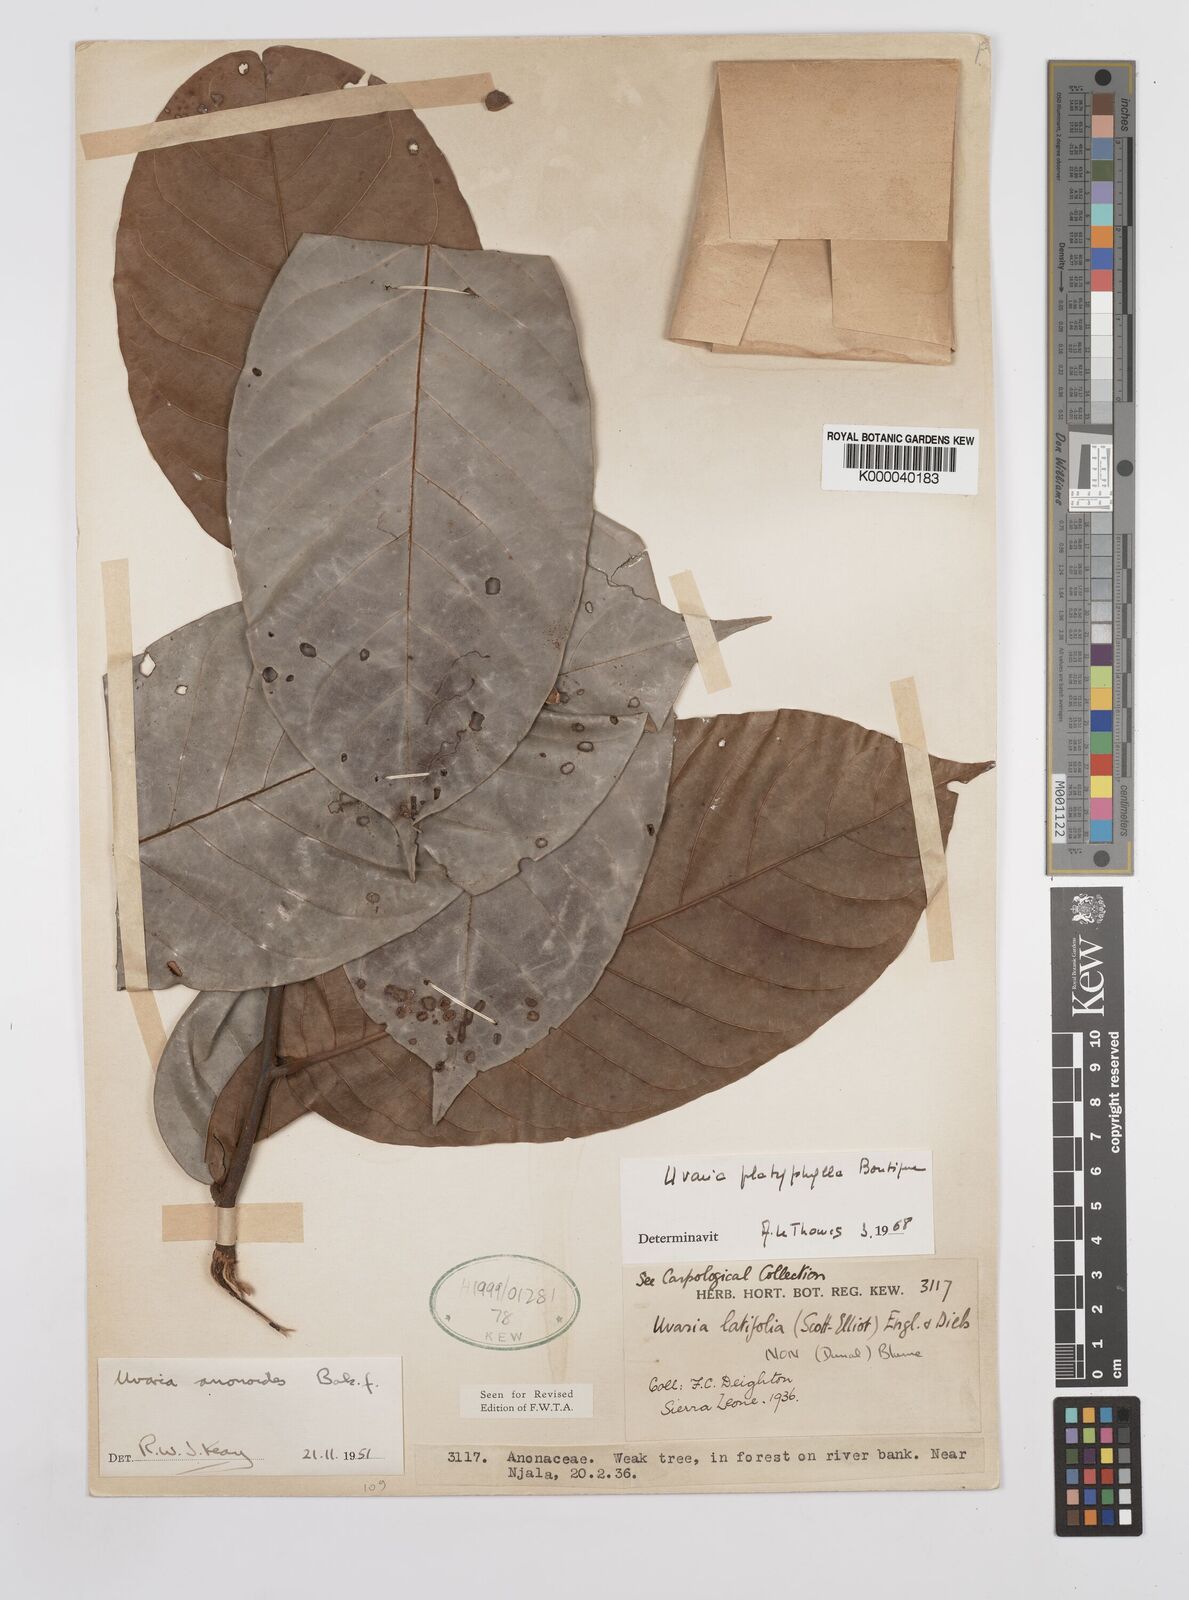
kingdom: Plantae
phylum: Tracheophyta
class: Magnoliopsida
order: Magnoliales
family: Annonaceae
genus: Uvaria
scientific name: Uvaria anonoides
